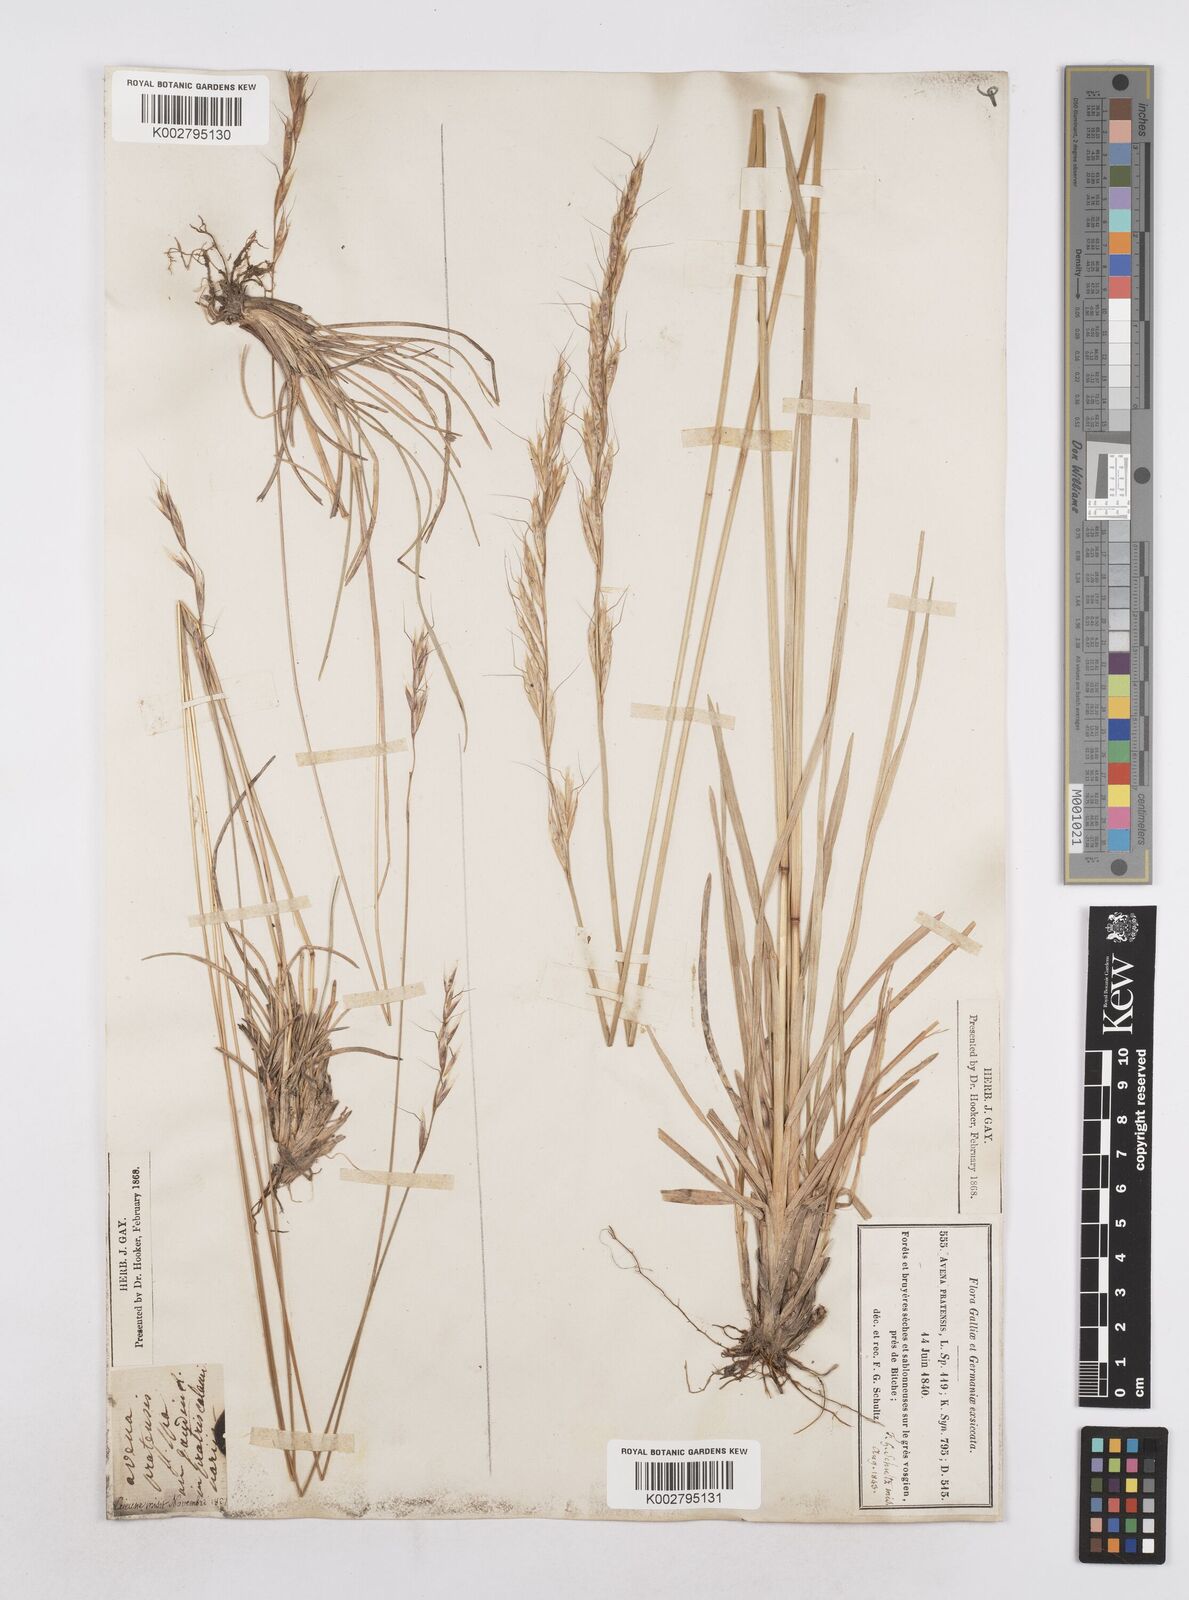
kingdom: Plantae
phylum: Tracheophyta
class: Liliopsida
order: Poales
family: Poaceae
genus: Helictochloa
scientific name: Helictochloa pratensis
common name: Meadow oat grass
